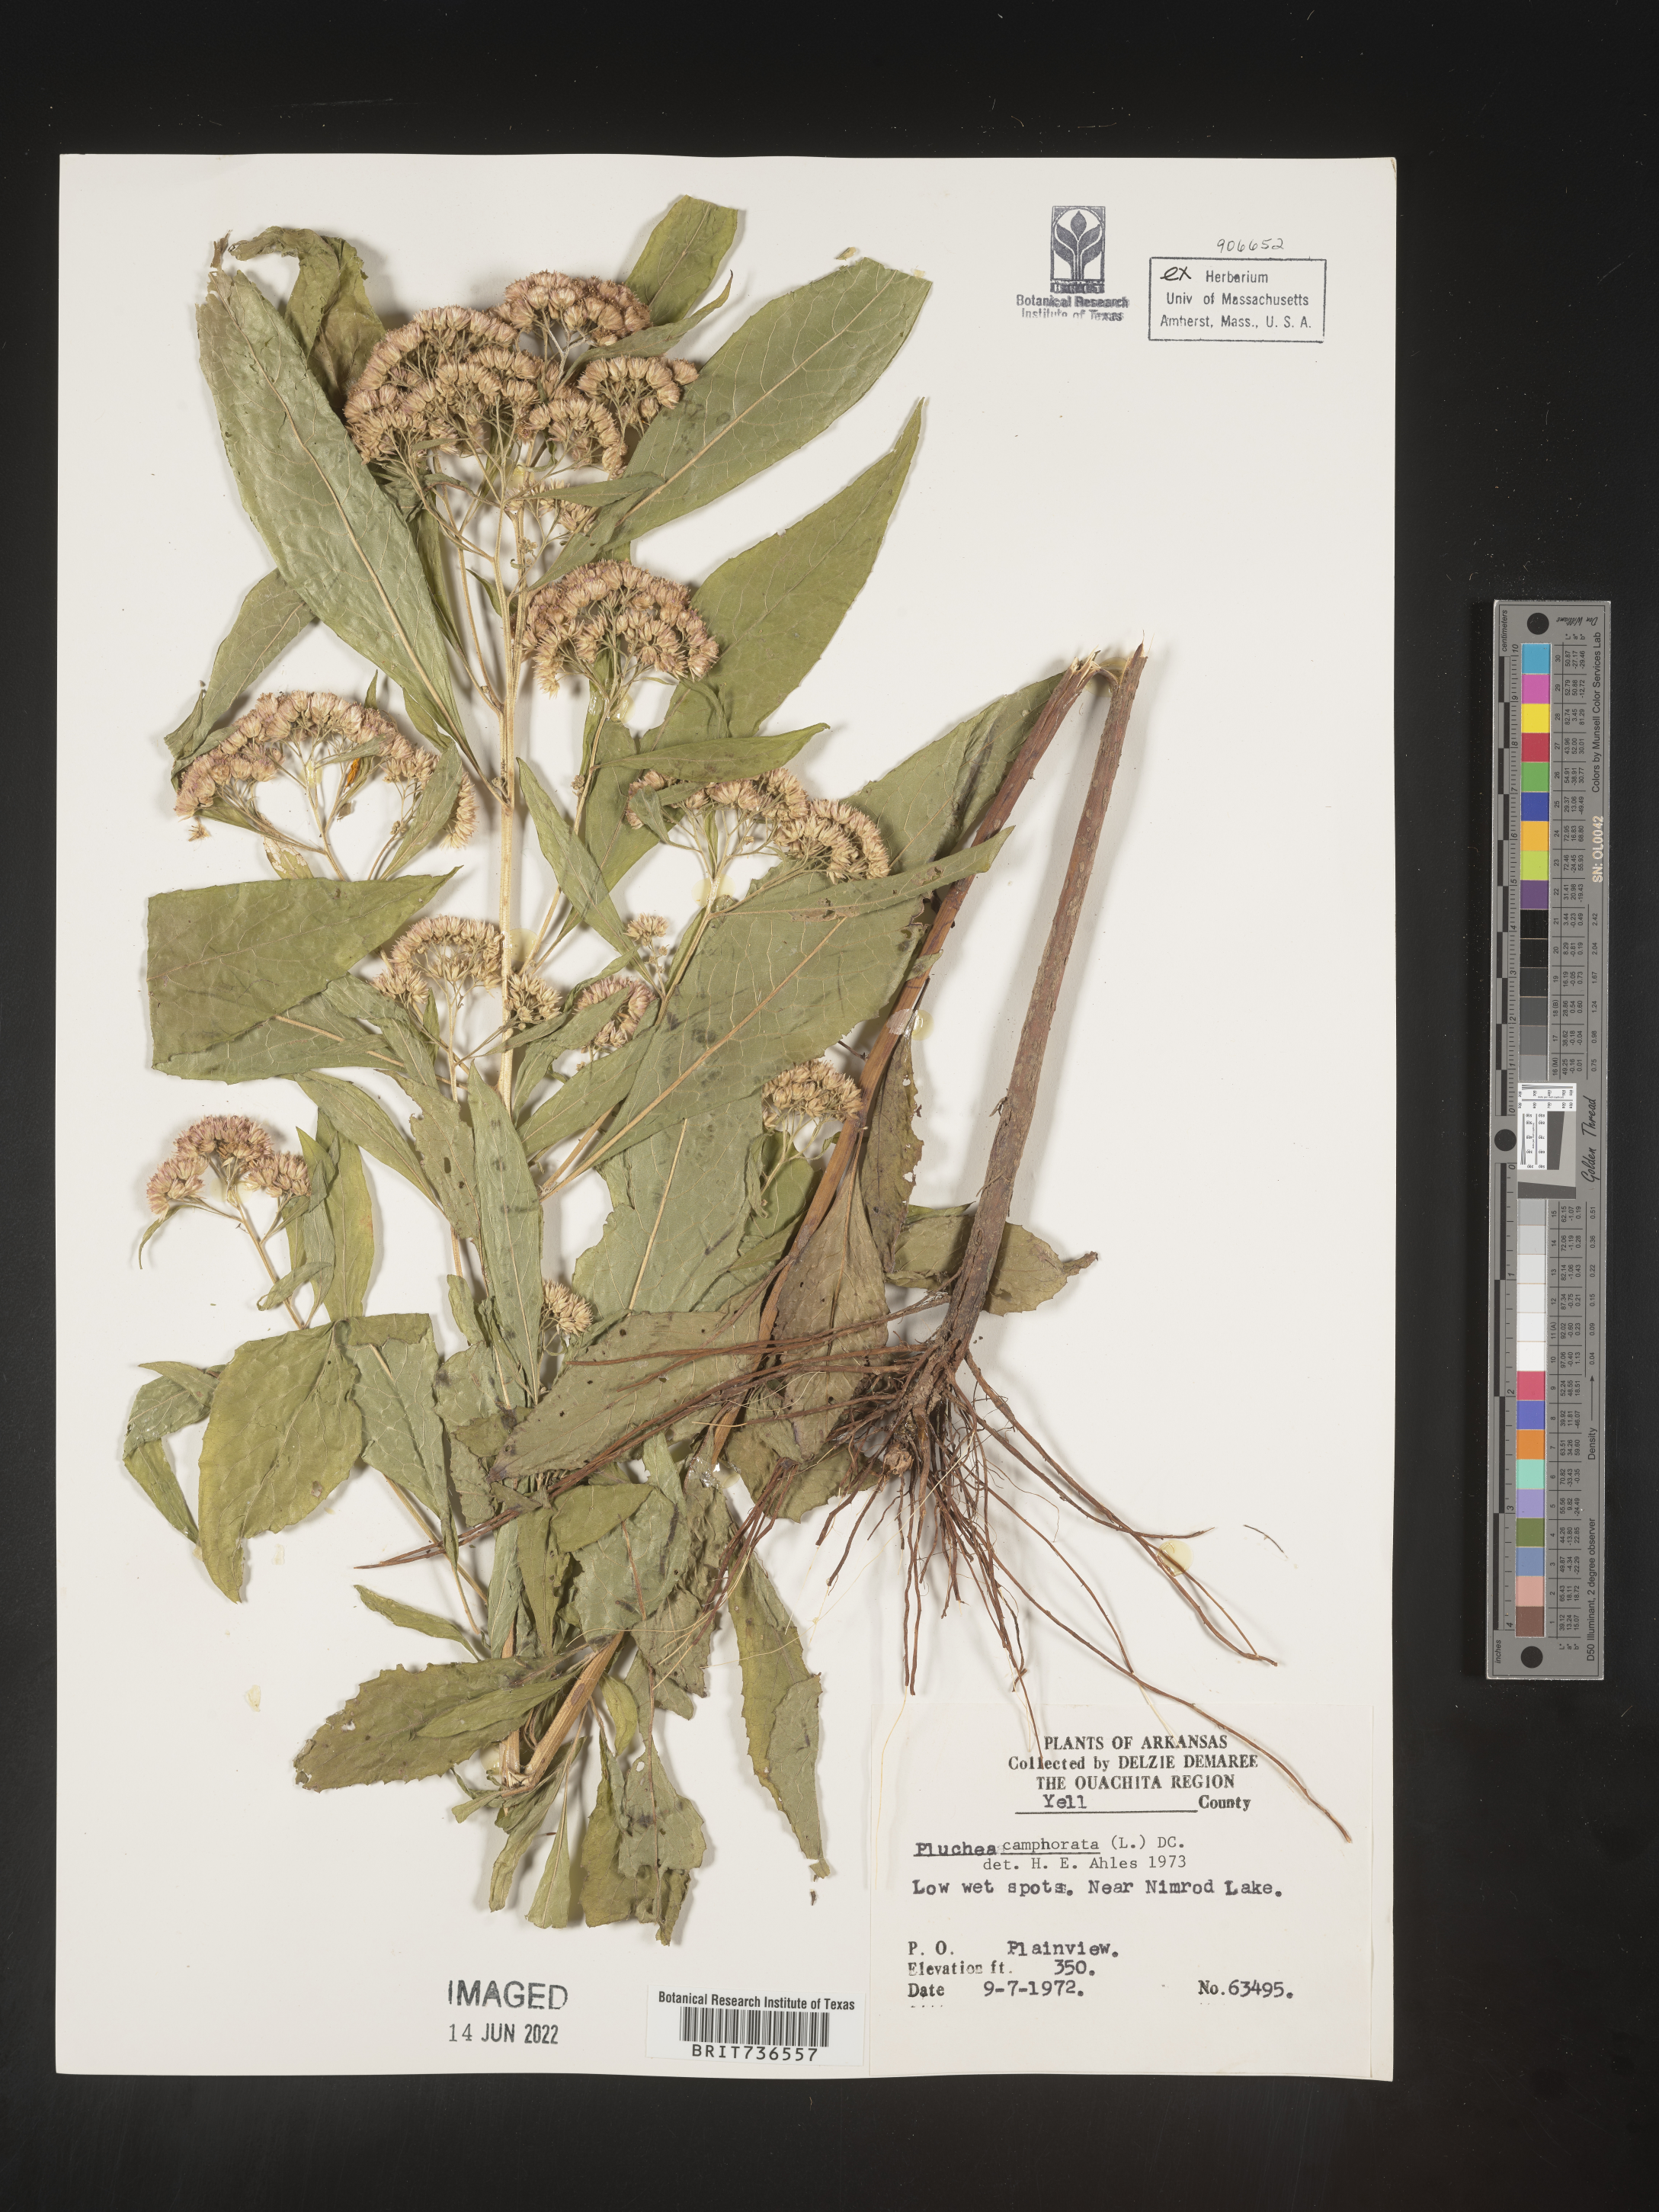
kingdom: Plantae
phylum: Tracheophyta
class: Magnoliopsida
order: Asterales
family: Asteraceae
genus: Pluchea
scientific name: Pluchea camphorata
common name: Camphor pluchea
